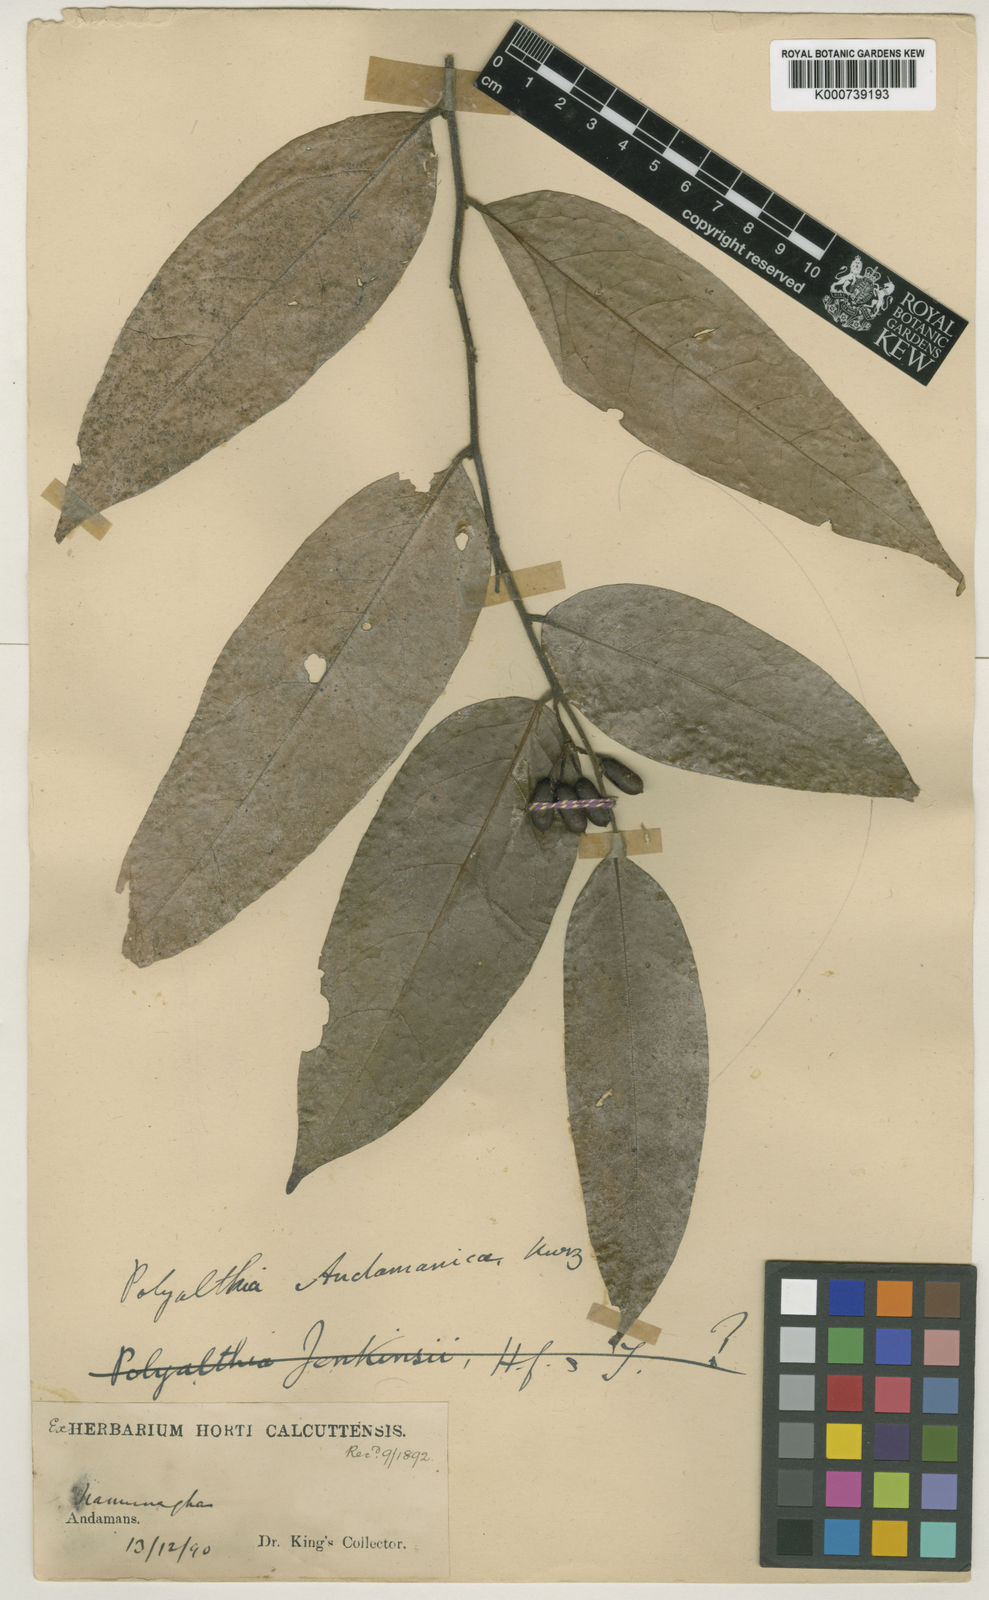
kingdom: Plantae
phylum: Tracheophyta
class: Magnoliopsida
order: Magnoliales
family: Annonaceae
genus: Polyalthia
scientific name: Polyalthia
